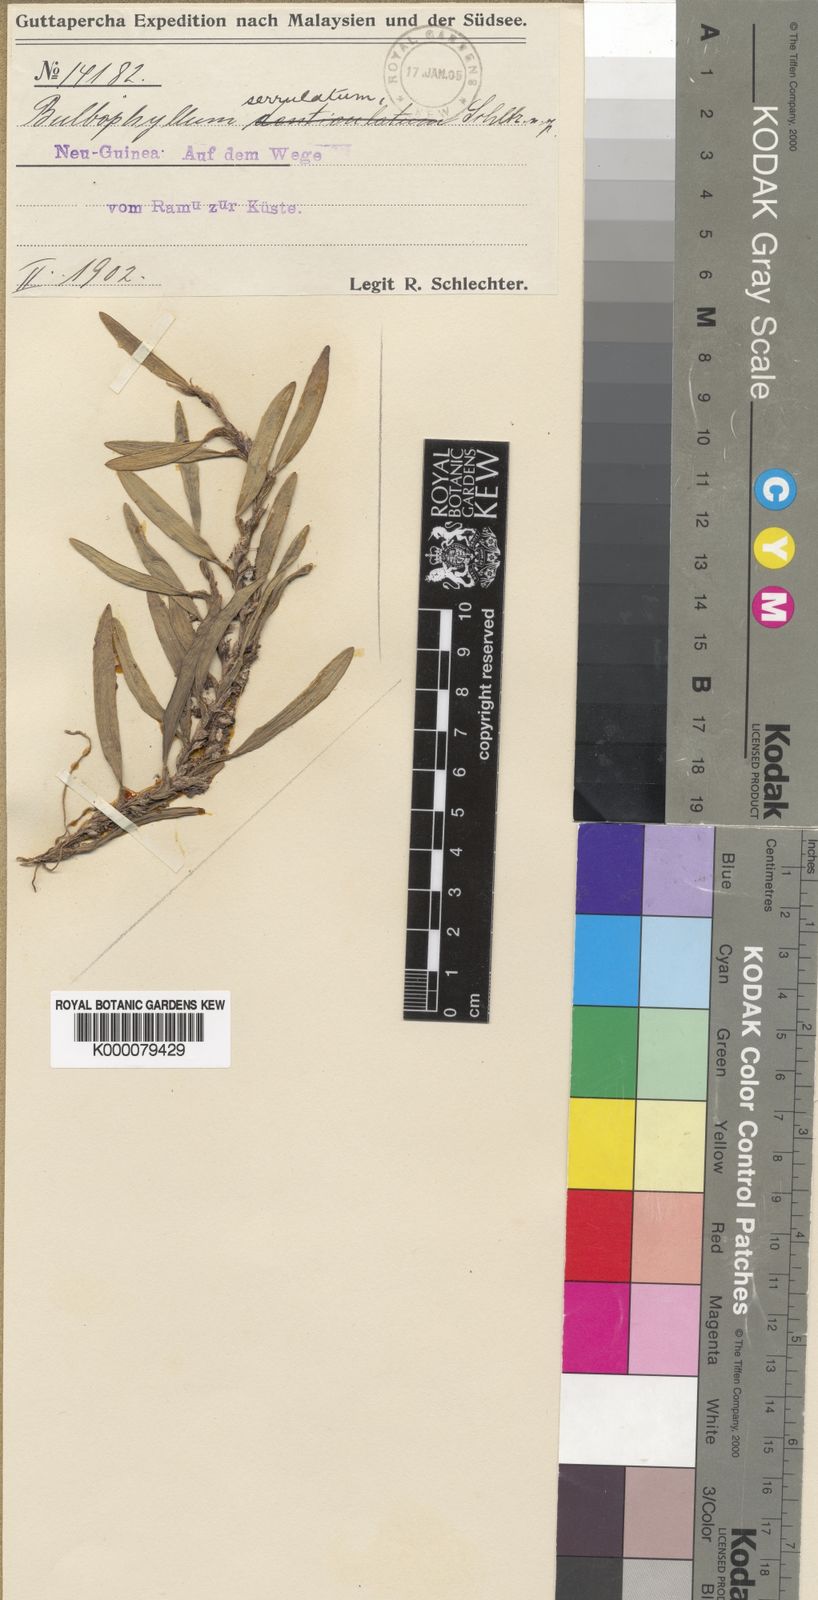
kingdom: Plantae
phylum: Tracheophyta
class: Liliopsida
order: Asparagales
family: Orchidaceae
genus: Bulbophyllum
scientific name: Bulbophyllum serrulatum
